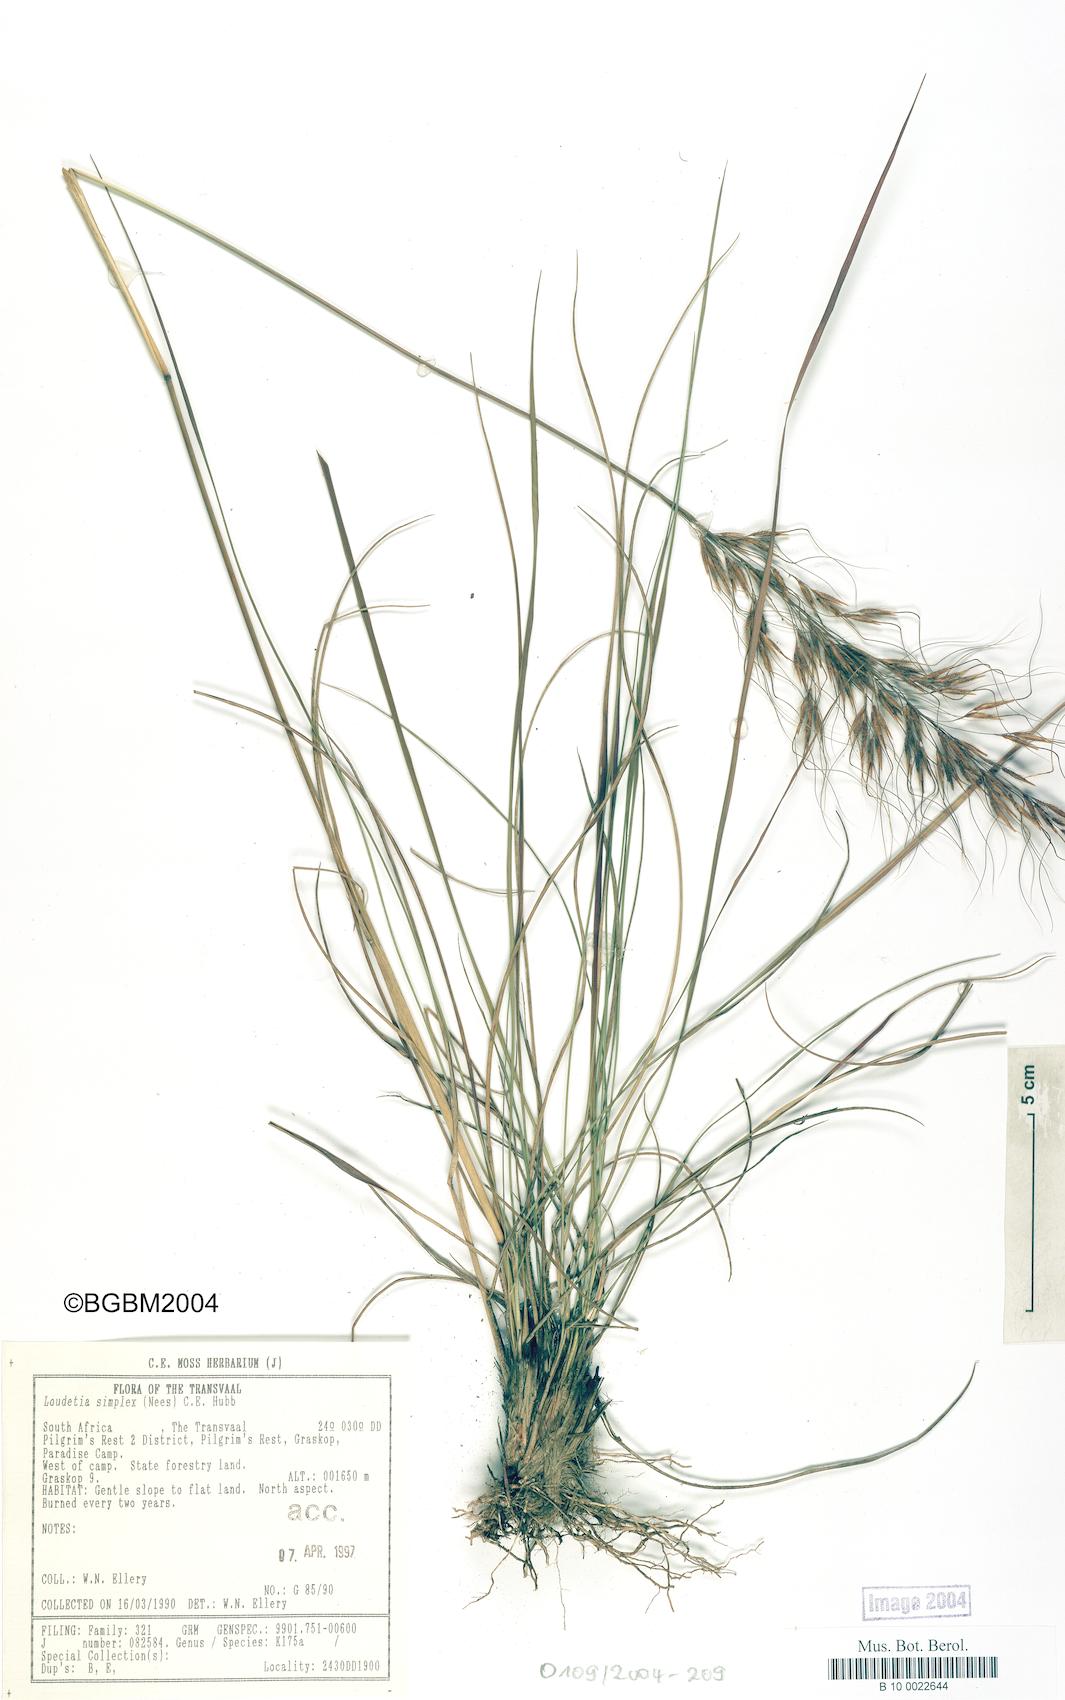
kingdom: Plantae
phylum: Tracheophyta
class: Liliopsida
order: Poales
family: Poaceae
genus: Loudetia
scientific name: Loudetia simplex
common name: Common russet grass
